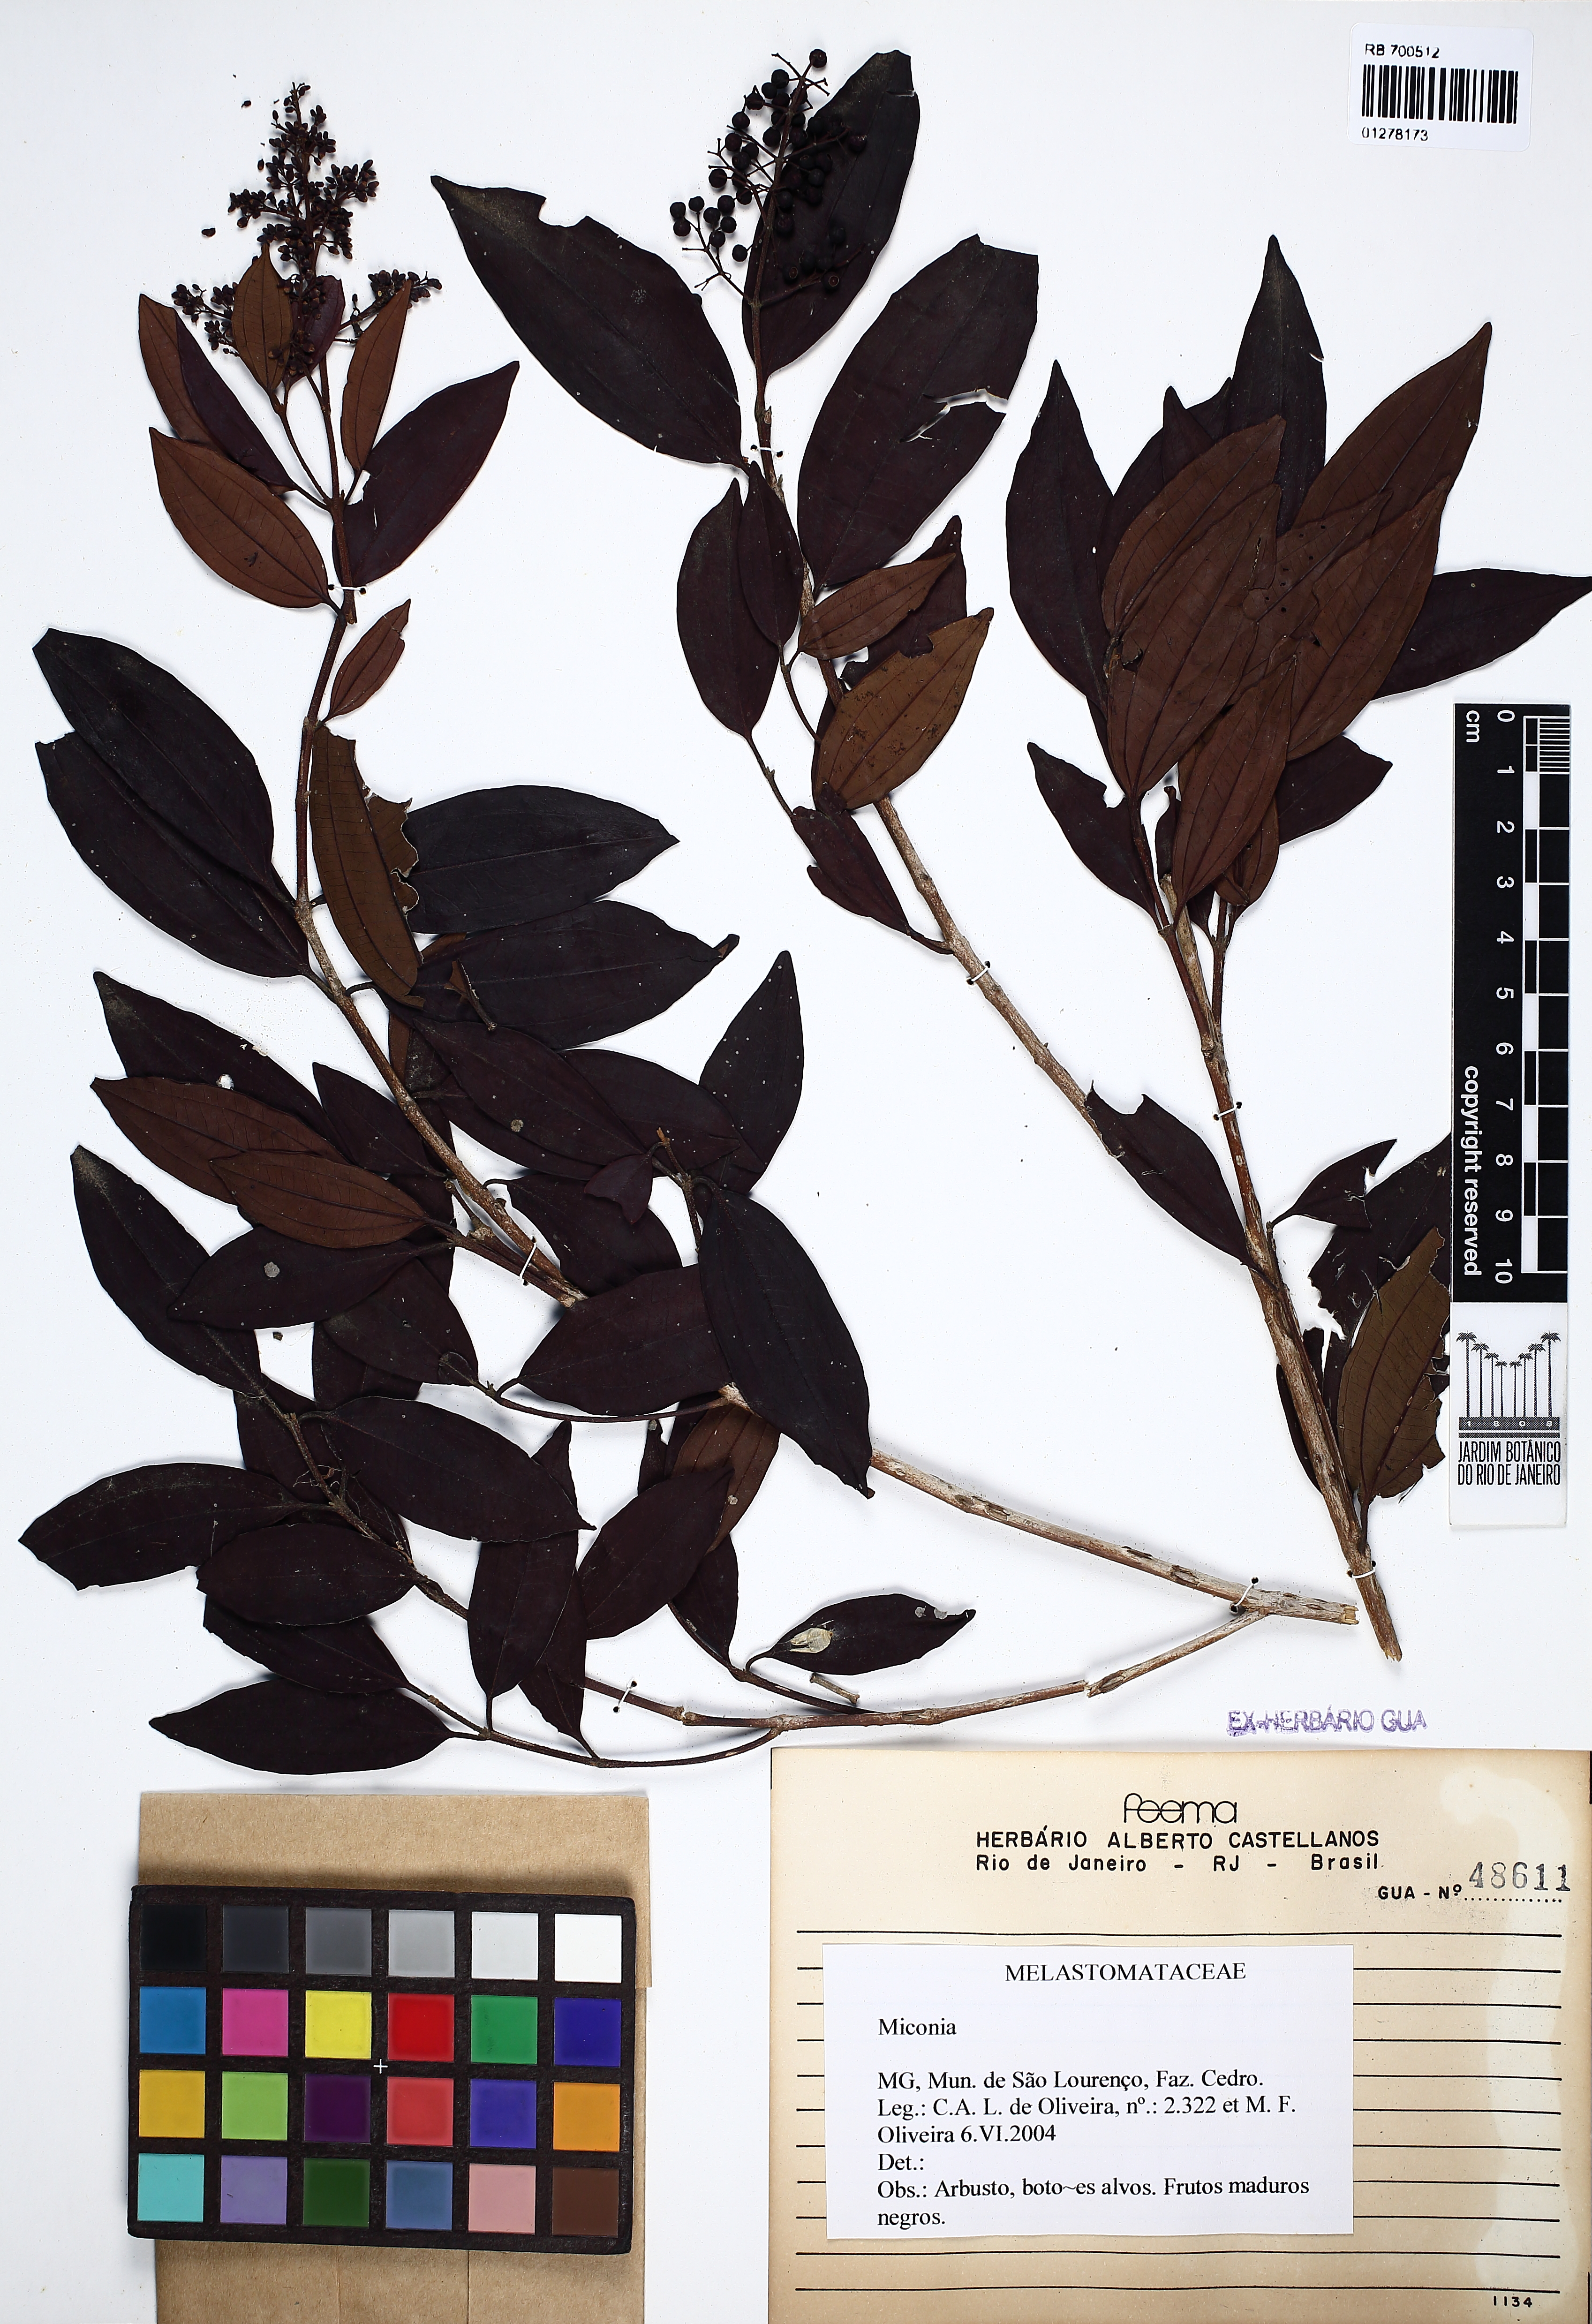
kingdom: Plantae
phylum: Tracheophyta
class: Magnoliopsida
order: Myrtales
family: Melastomataceae
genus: Miconia
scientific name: Miconia
